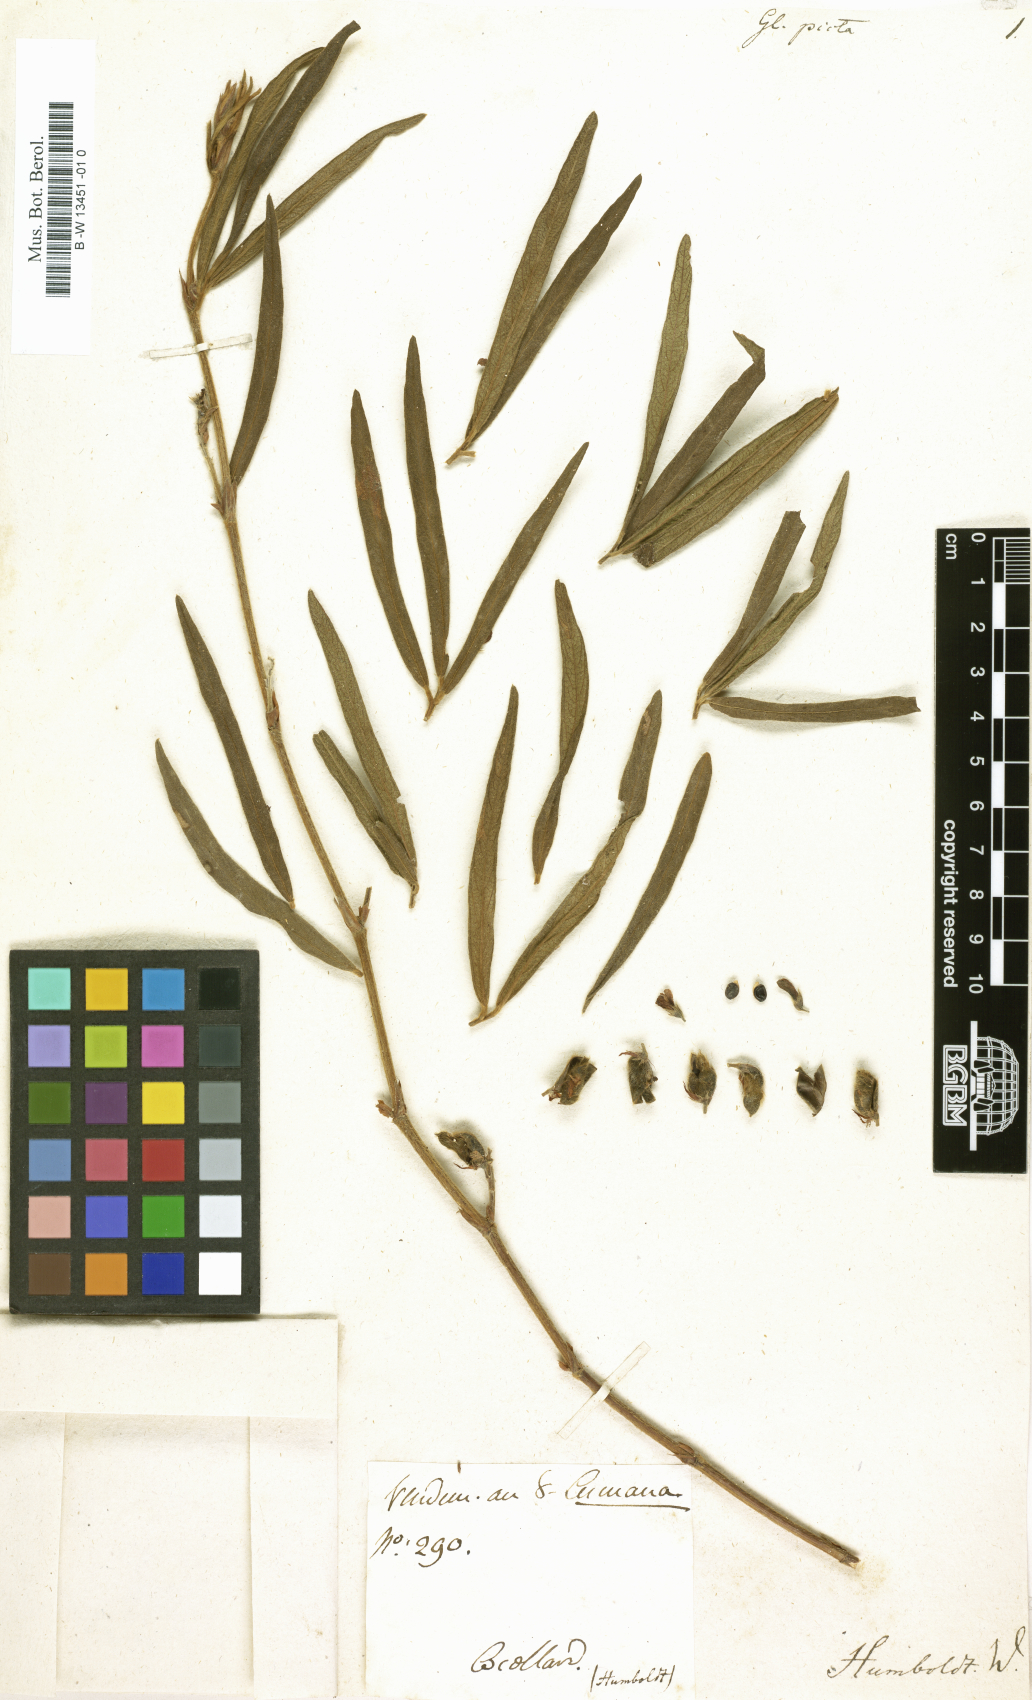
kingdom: Plantae
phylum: Tracheophyta
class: Magnoliopsida
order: Fabales
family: Fabaceae
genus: Eriosema
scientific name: Eriosema violaceum
